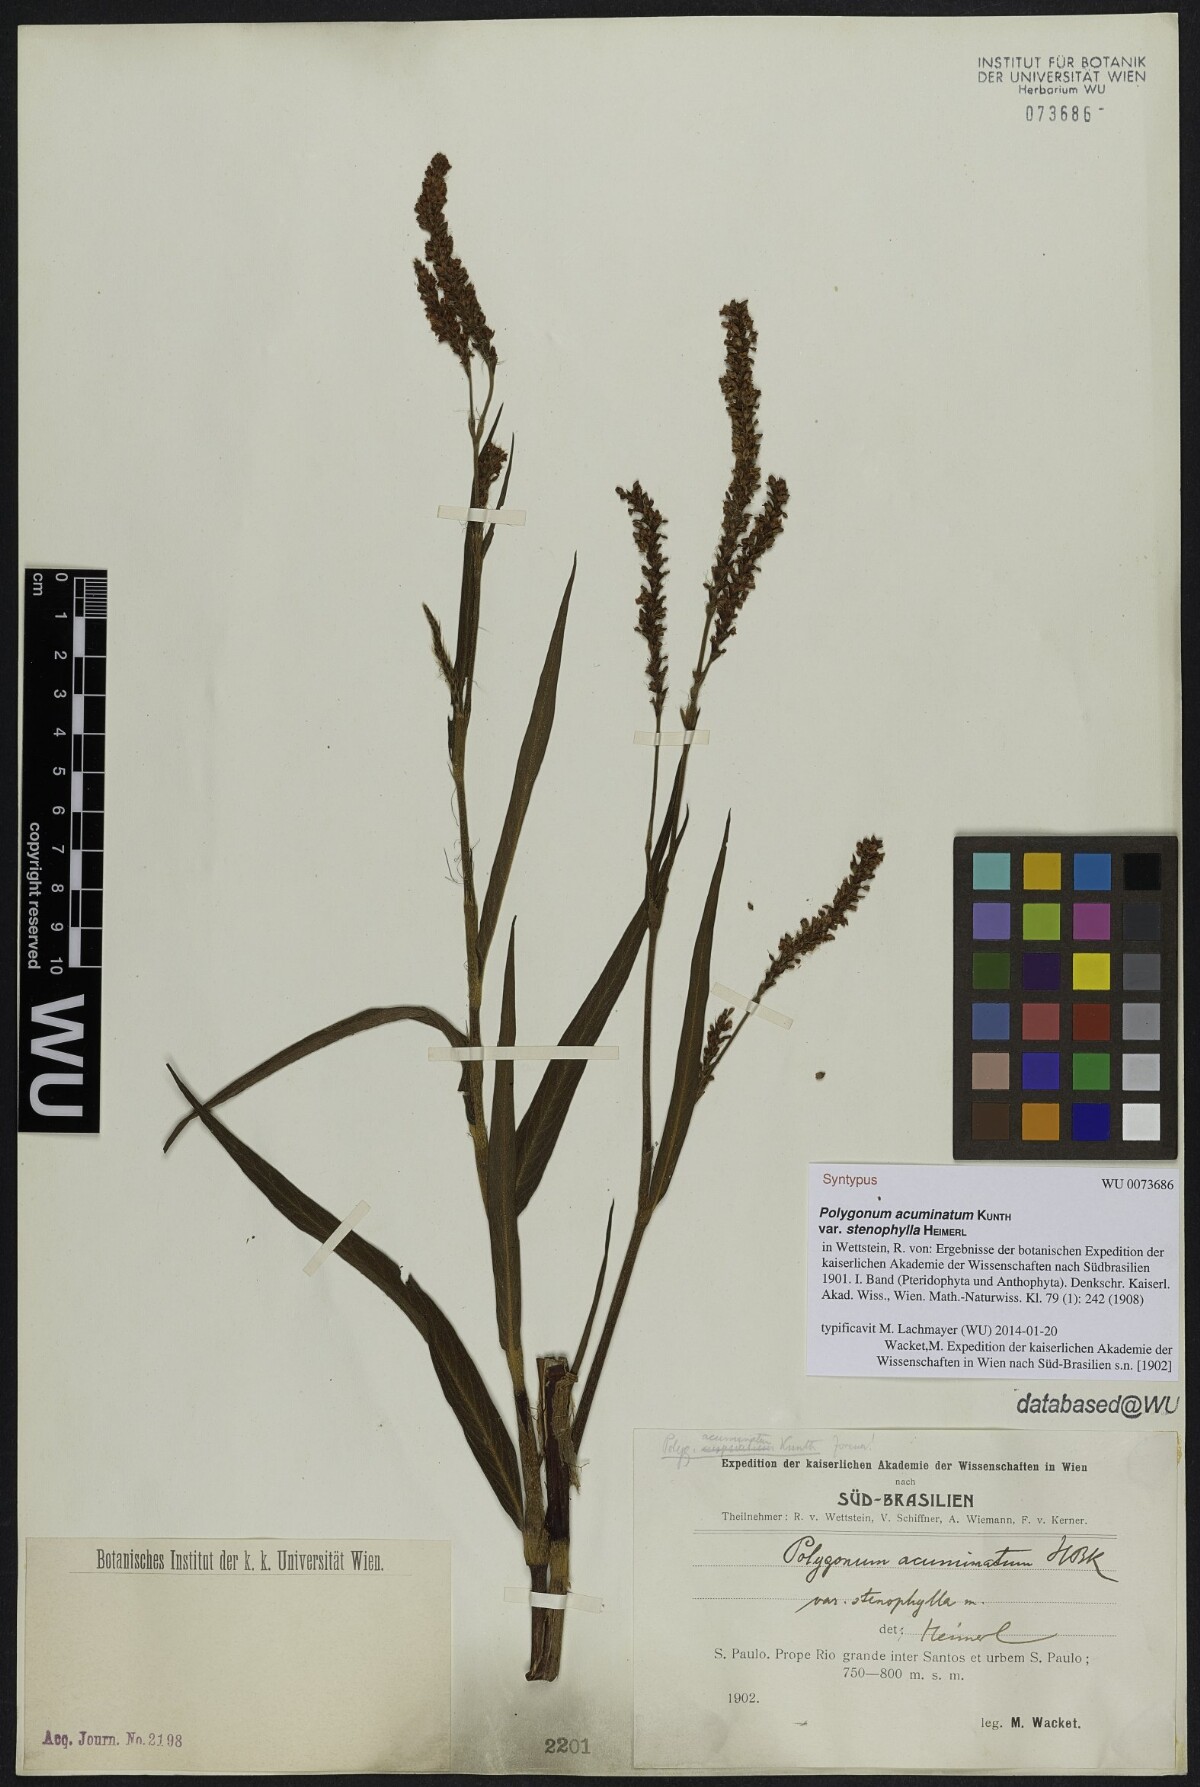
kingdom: Plantae
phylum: Tracheophyta
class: Magnoliopsida
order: Caryophyllales
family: Polygonaceae
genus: Persicaria
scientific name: Persicaria acuminata
